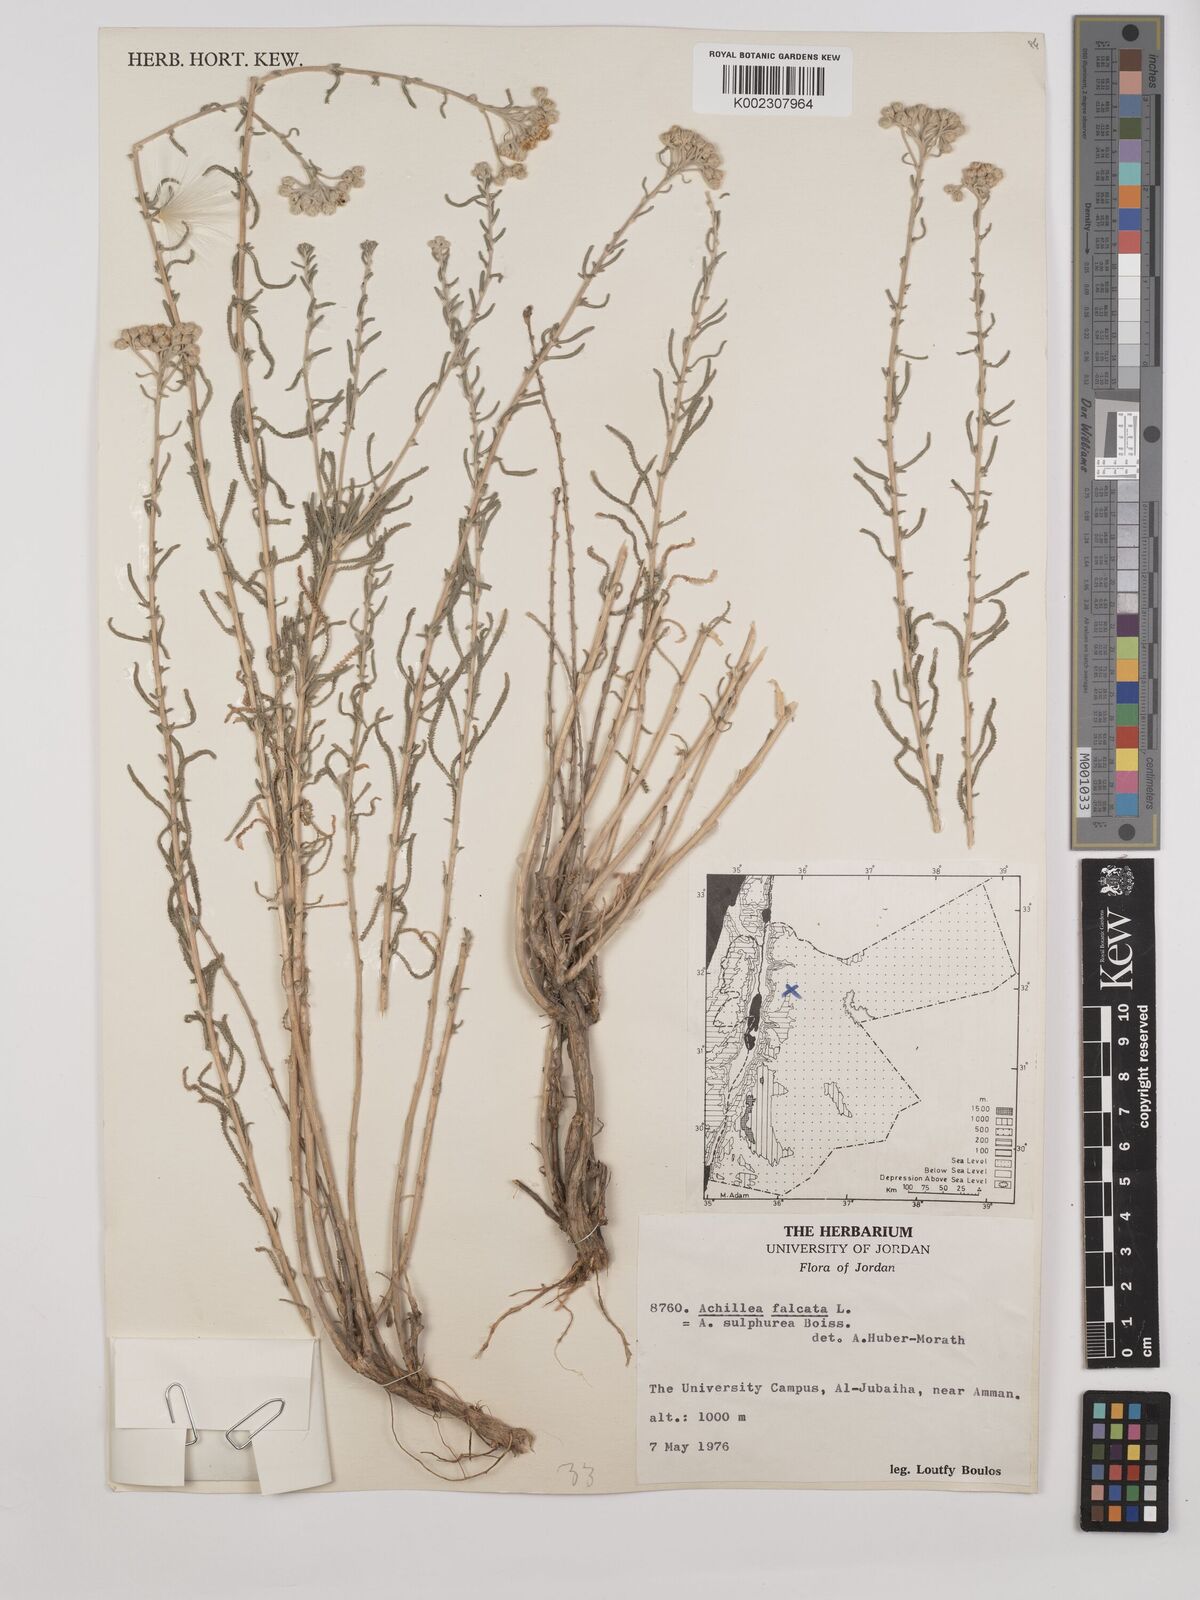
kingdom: Plantae
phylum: Tracheophyta
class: Magnoliopsida
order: Asterales
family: Asteraceae
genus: Achillea
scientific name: Achillea falcata
